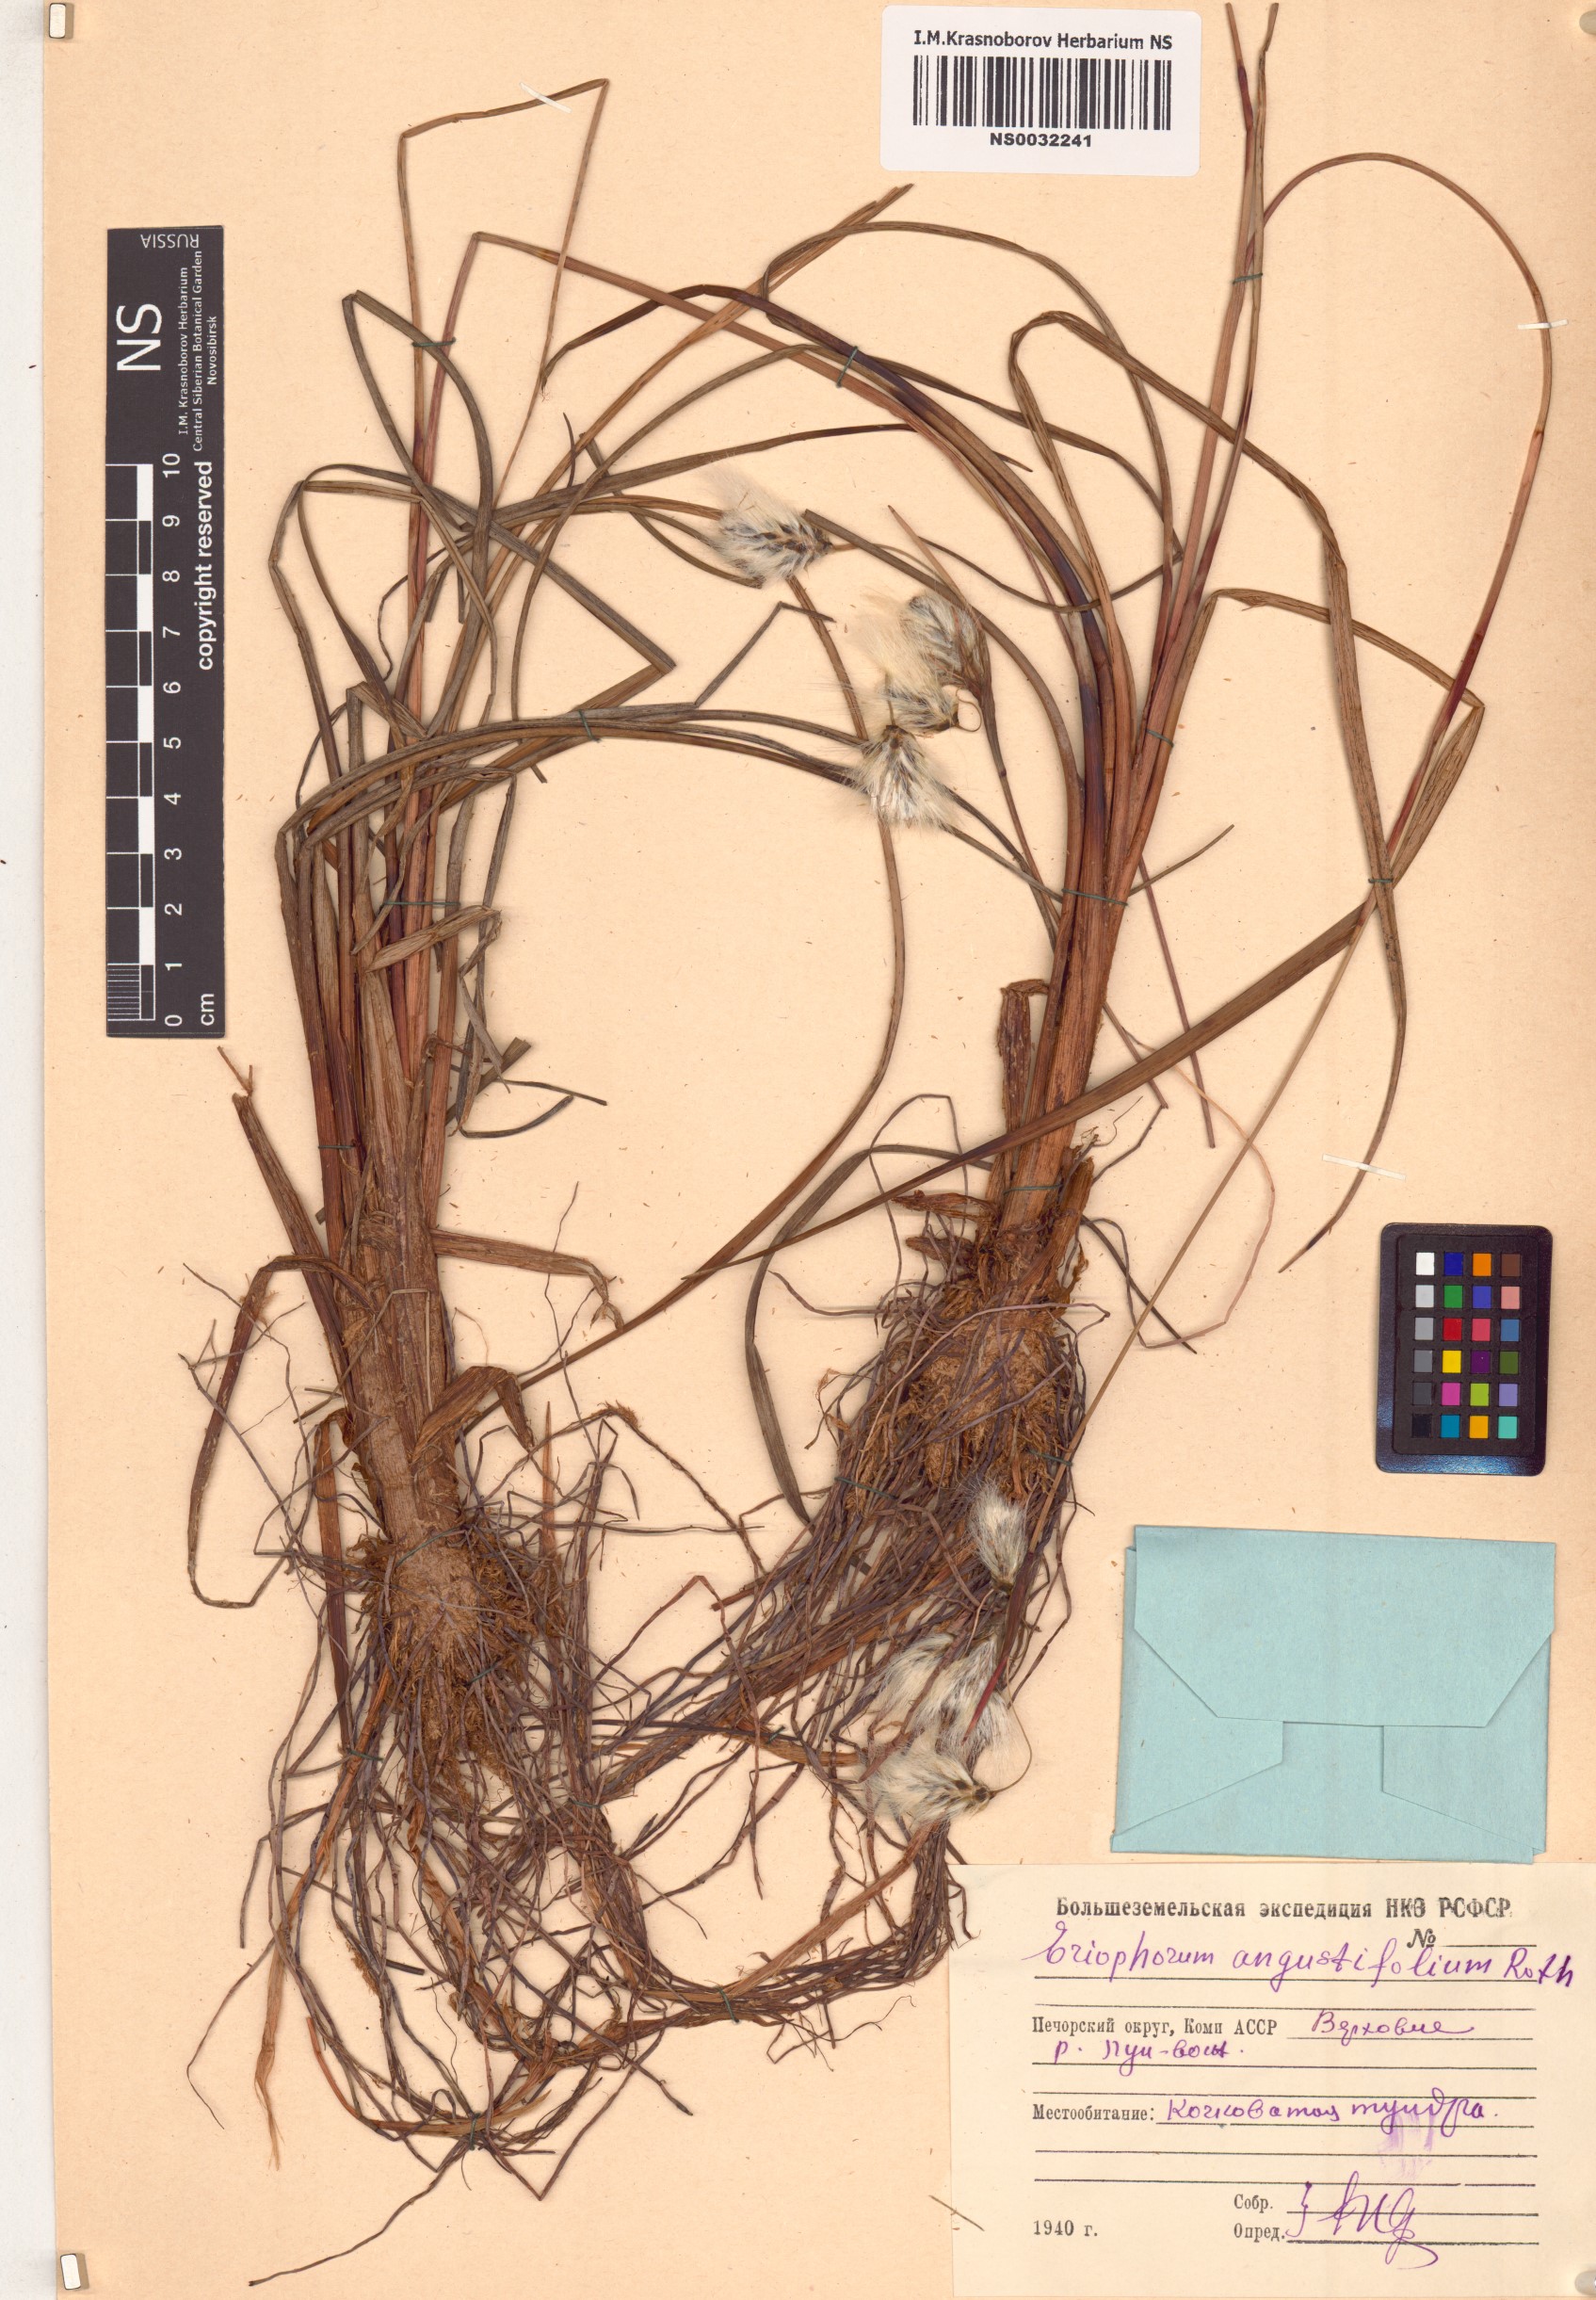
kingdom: Plantae
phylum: Tracheophyta
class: Liliopsida
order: Poales
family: Cyperaceae
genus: Eriophorum
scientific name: Eriophorum angustifolium
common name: Common cottongrass
